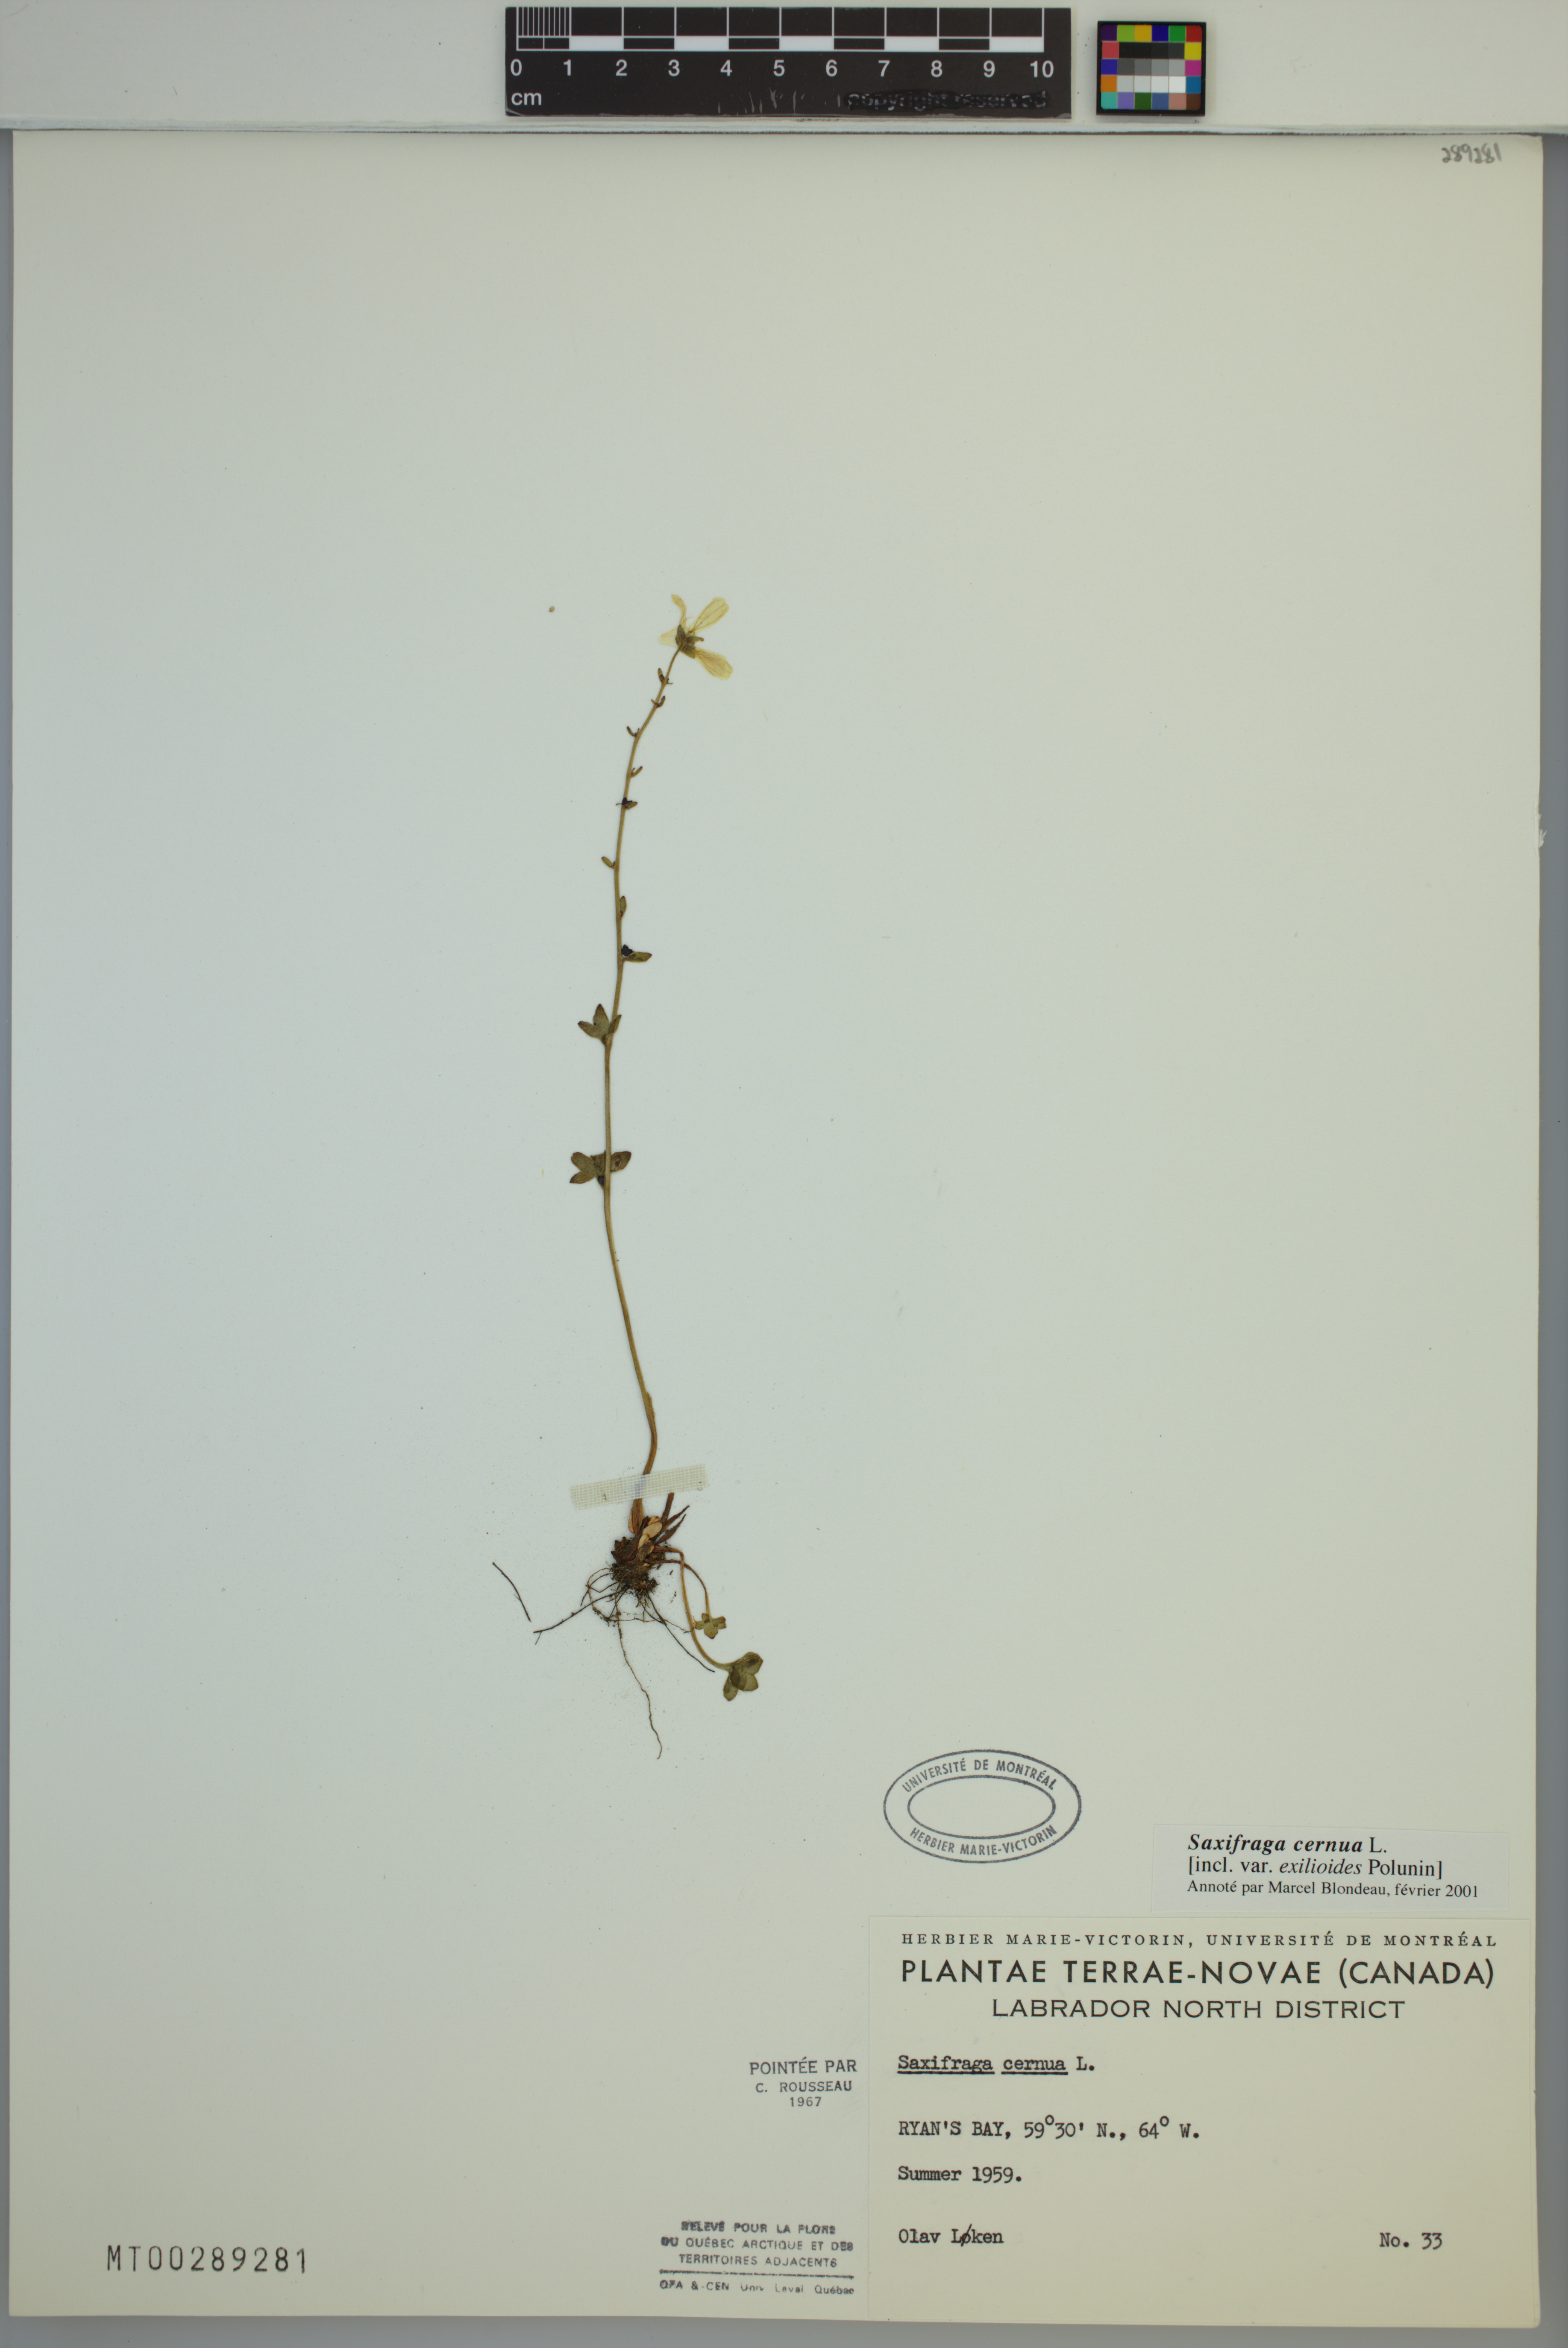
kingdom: Plantae
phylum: Tracheophyta
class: Magnoliopsida
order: Saxifragales
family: Saxifragaceae
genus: Saxifraga
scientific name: Saxifraga cernua
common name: Drooping saxifrage
